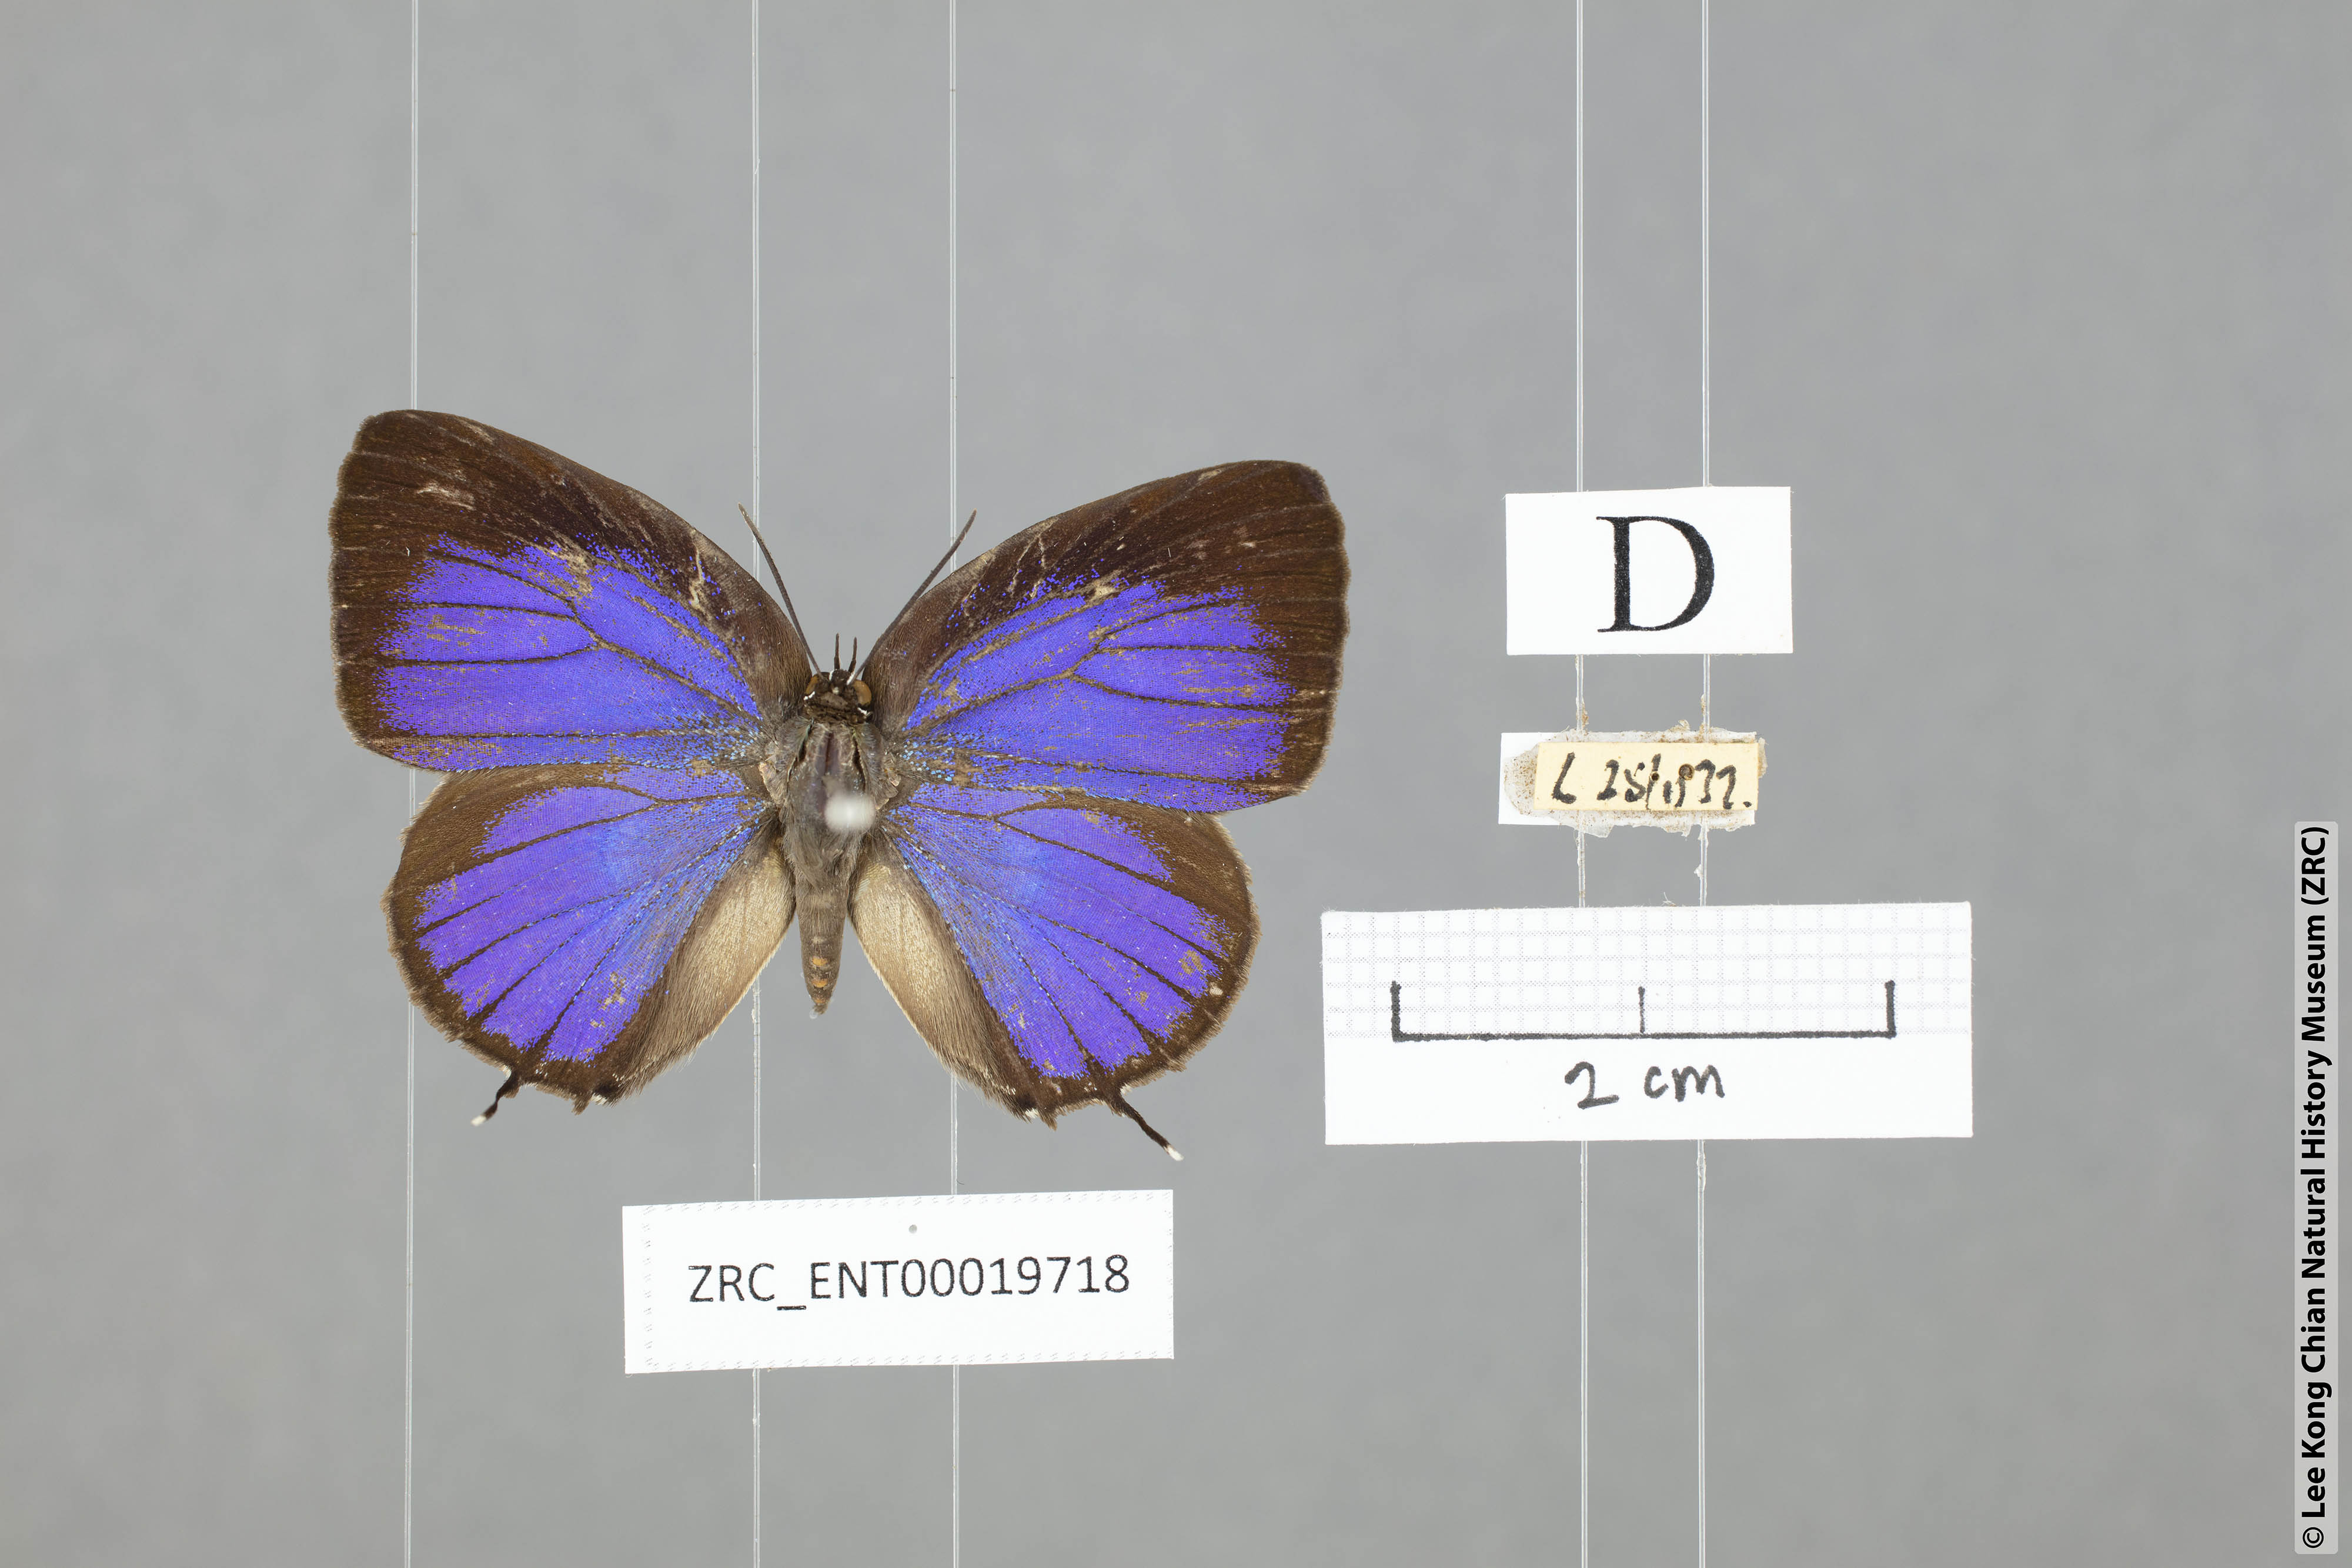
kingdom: Animalia
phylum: Arthropoda
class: Insecta
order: Lepidoptera
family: Lycaenidae
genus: Arhopala
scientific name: Arhopala myrzala
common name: Malayan oakblue
